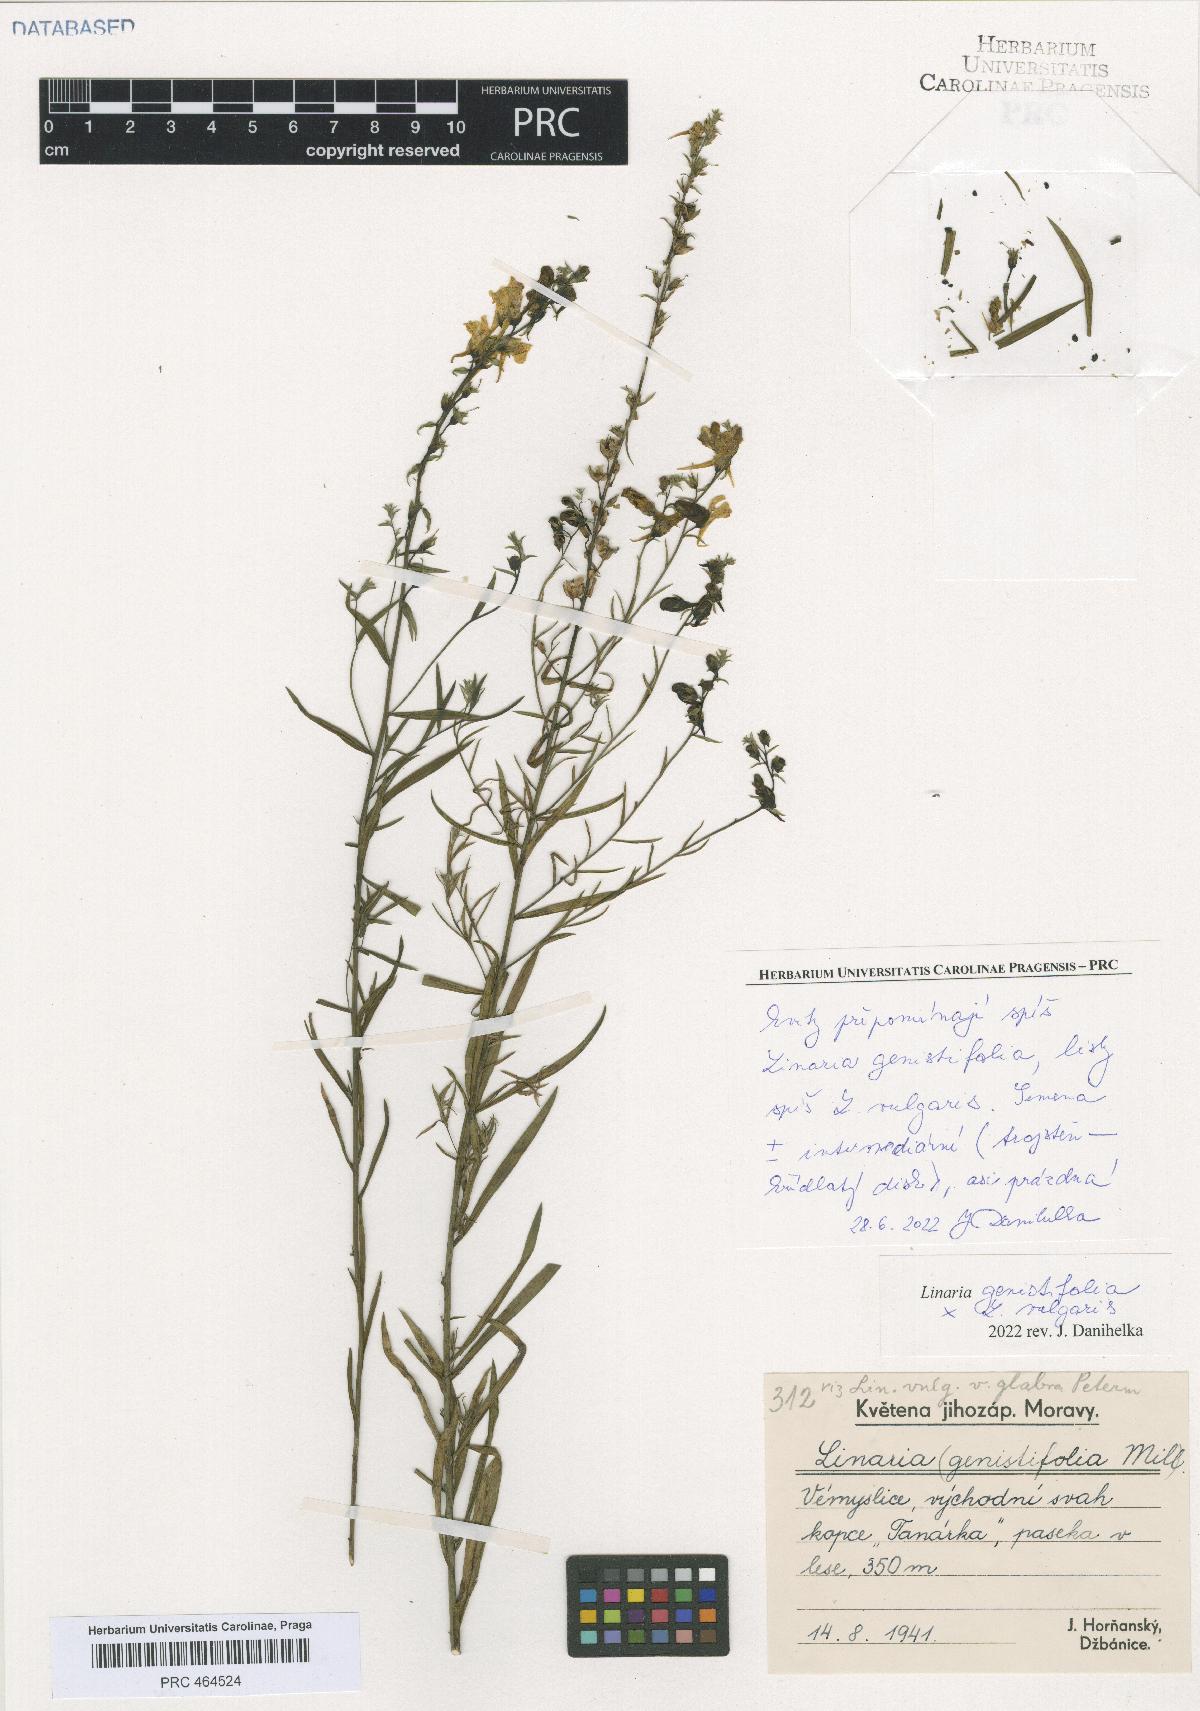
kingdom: Plantae
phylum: Tracheophyta
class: Magnoliopsida
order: Lamiales
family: Scrophulariaceae
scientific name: Scrophulariaceae
